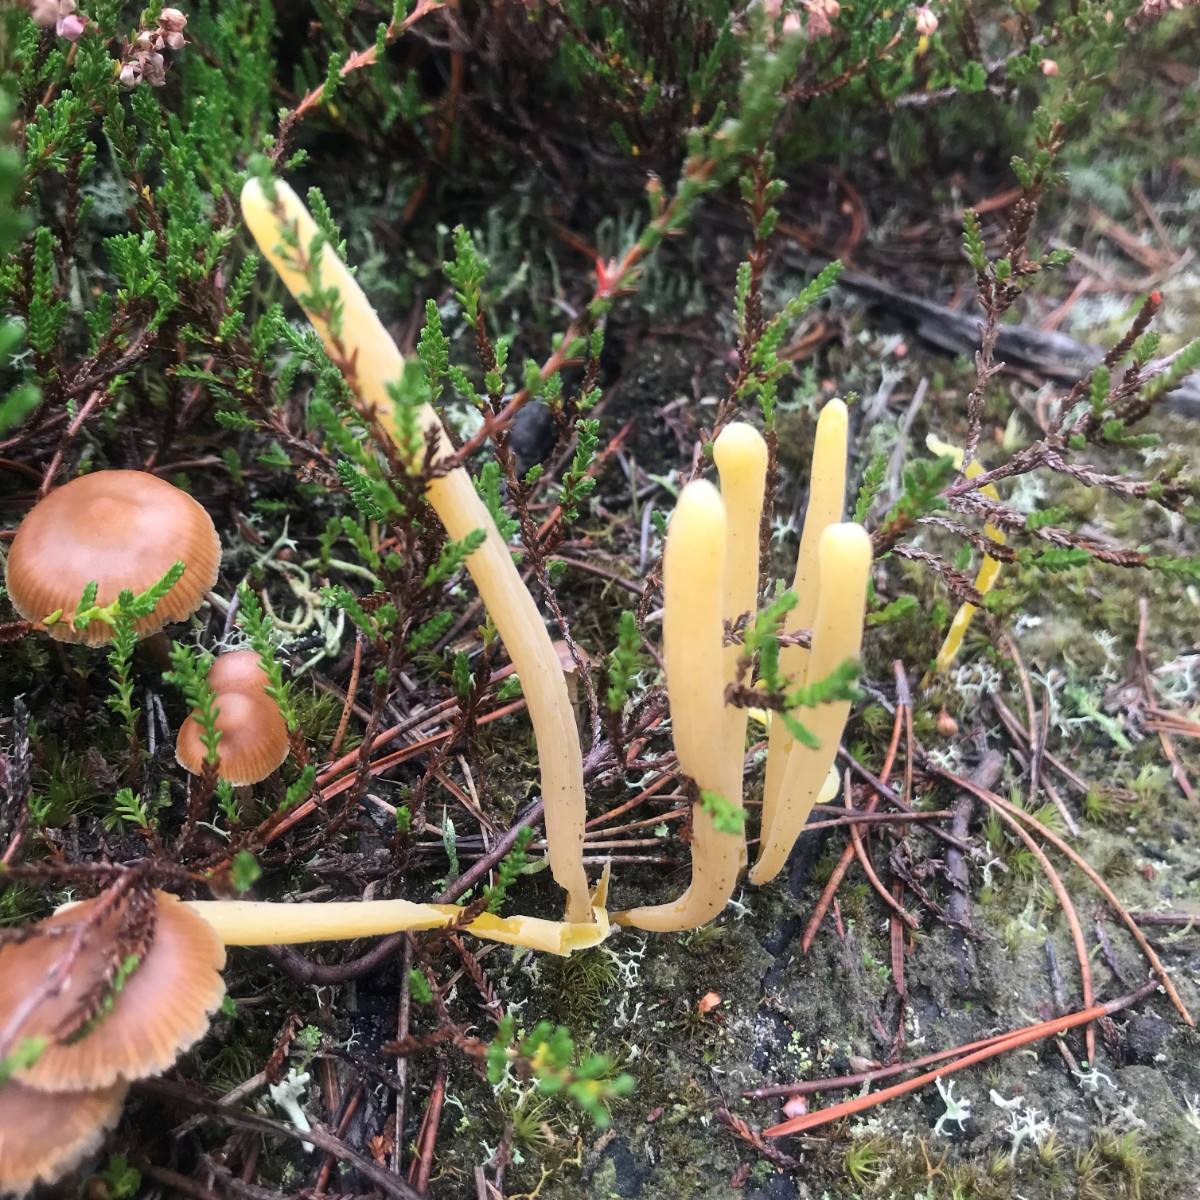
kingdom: Fungi
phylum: Basidiomycota
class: Agaricomycetes
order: Agaricales
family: Clavariaceae
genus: Clavaria
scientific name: Clavaria argillacea
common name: lerfarvet køllesvamp
